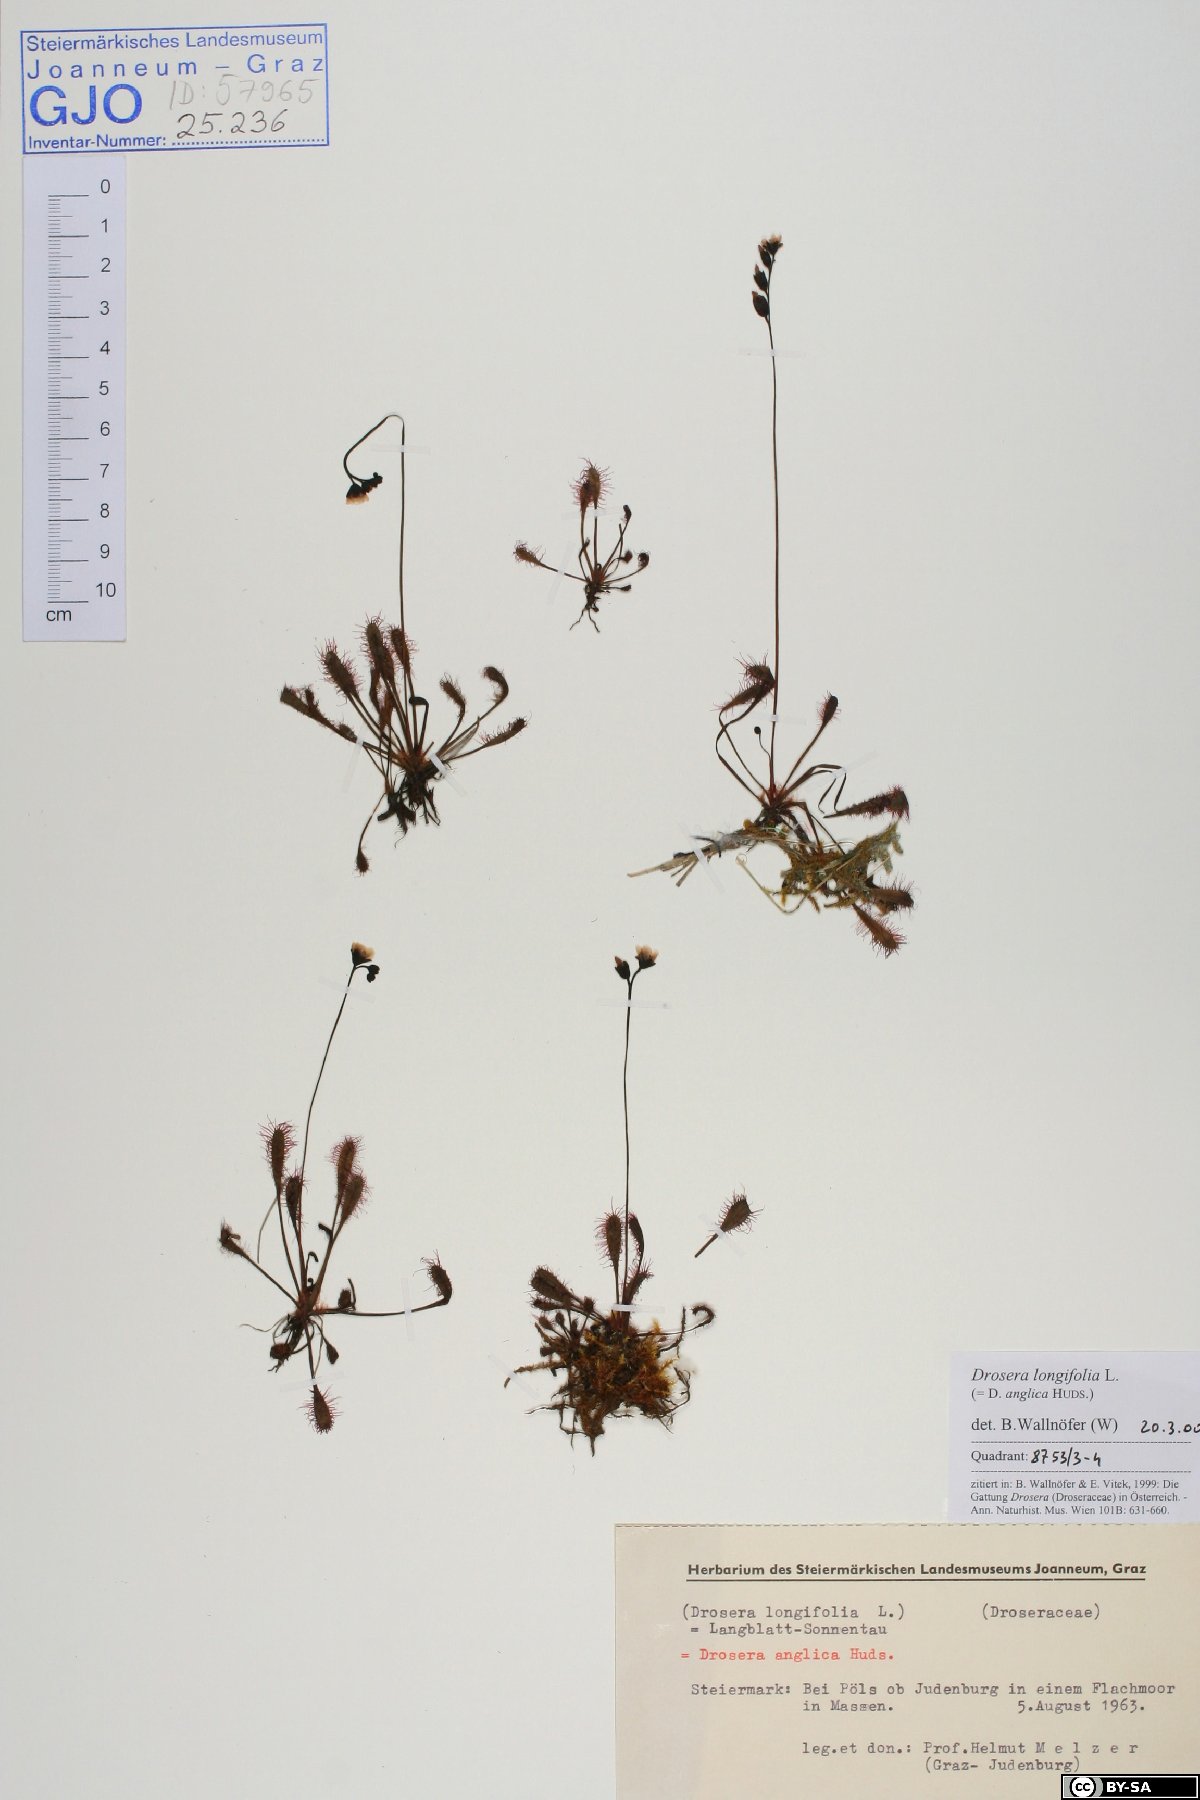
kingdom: Plantae
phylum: Tracheophyta
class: Magnoliopsida
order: Caryophyllales
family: Droseraceae
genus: Drosera
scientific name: Drosera anglica
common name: Great sundew
